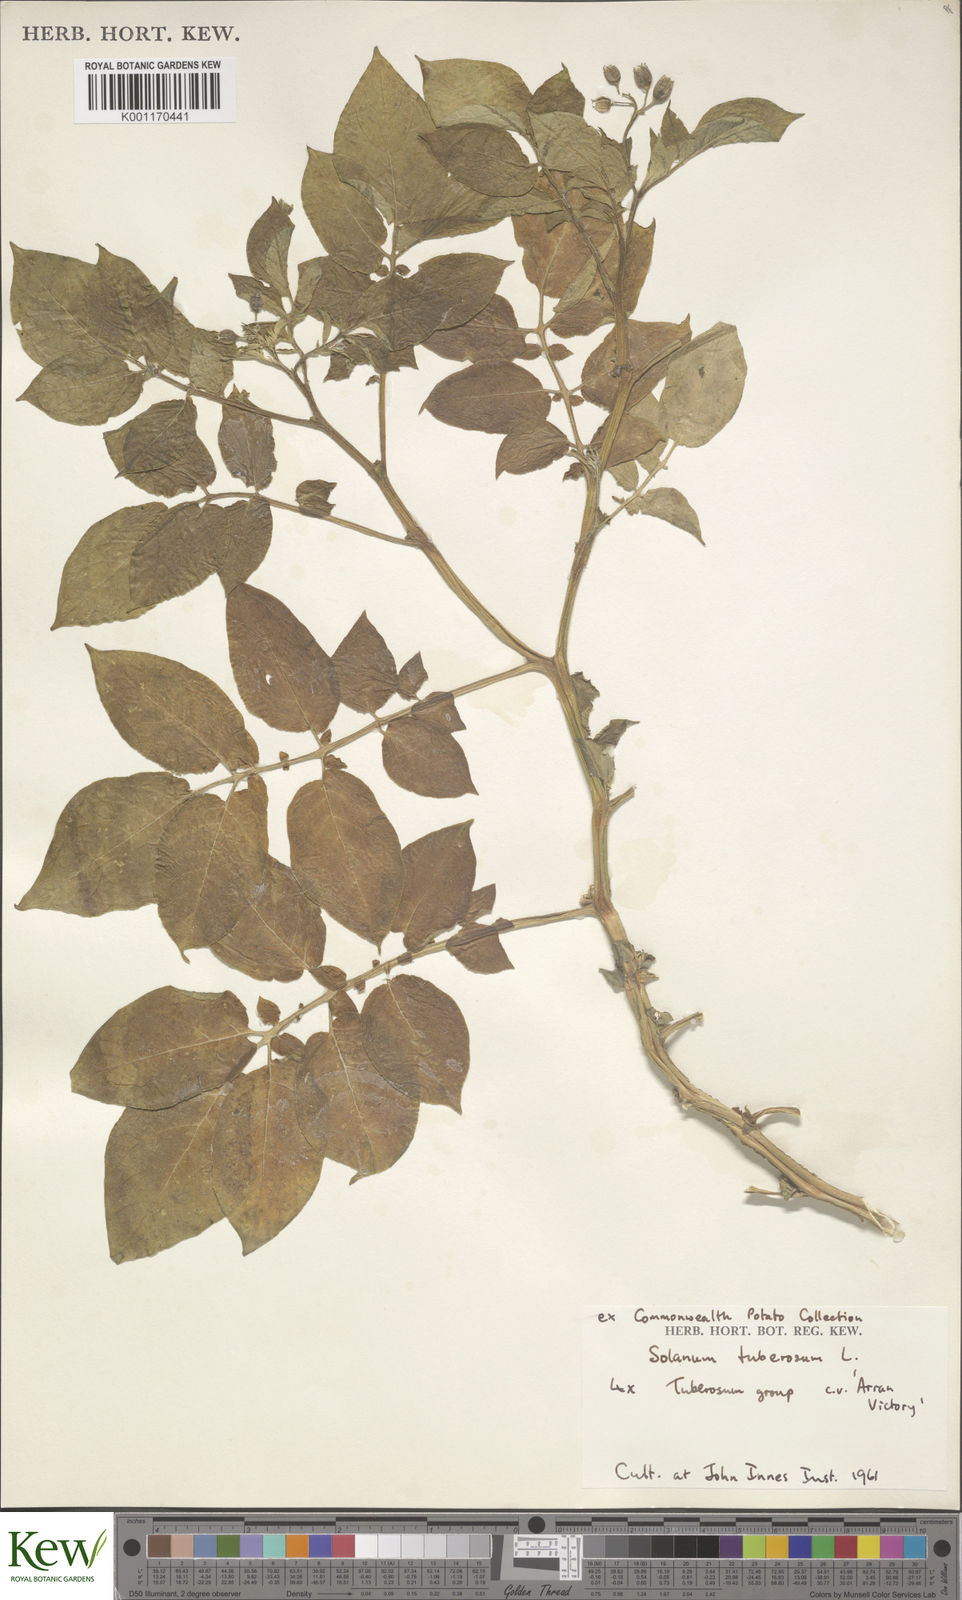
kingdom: Plantae
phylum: Tracheophyta
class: Magnoliopsida
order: Solanales
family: Solanaceae
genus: Solanum
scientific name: Solanum tuberosum
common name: Potato
